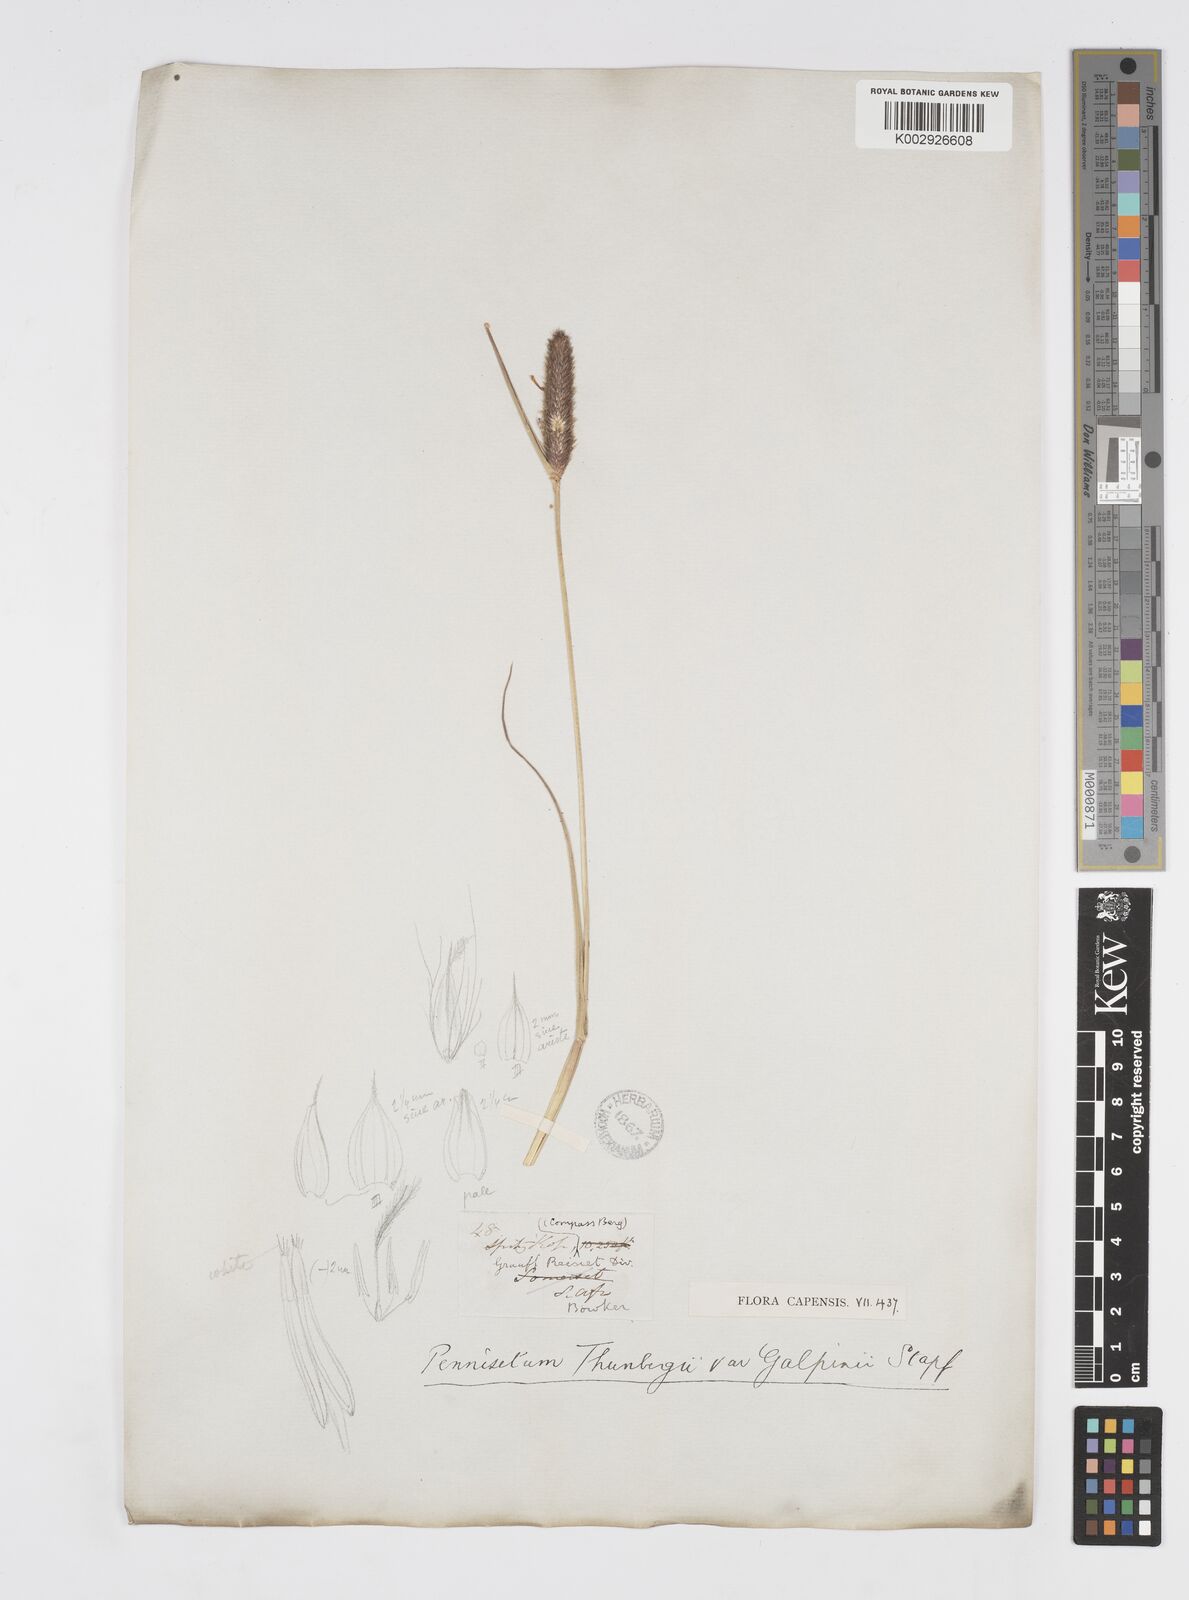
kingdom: Plantae
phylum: Tracheophyta
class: Liliopsida
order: Poales
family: Poaceae
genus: Cenchrus
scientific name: Cenchrus geniculatus
